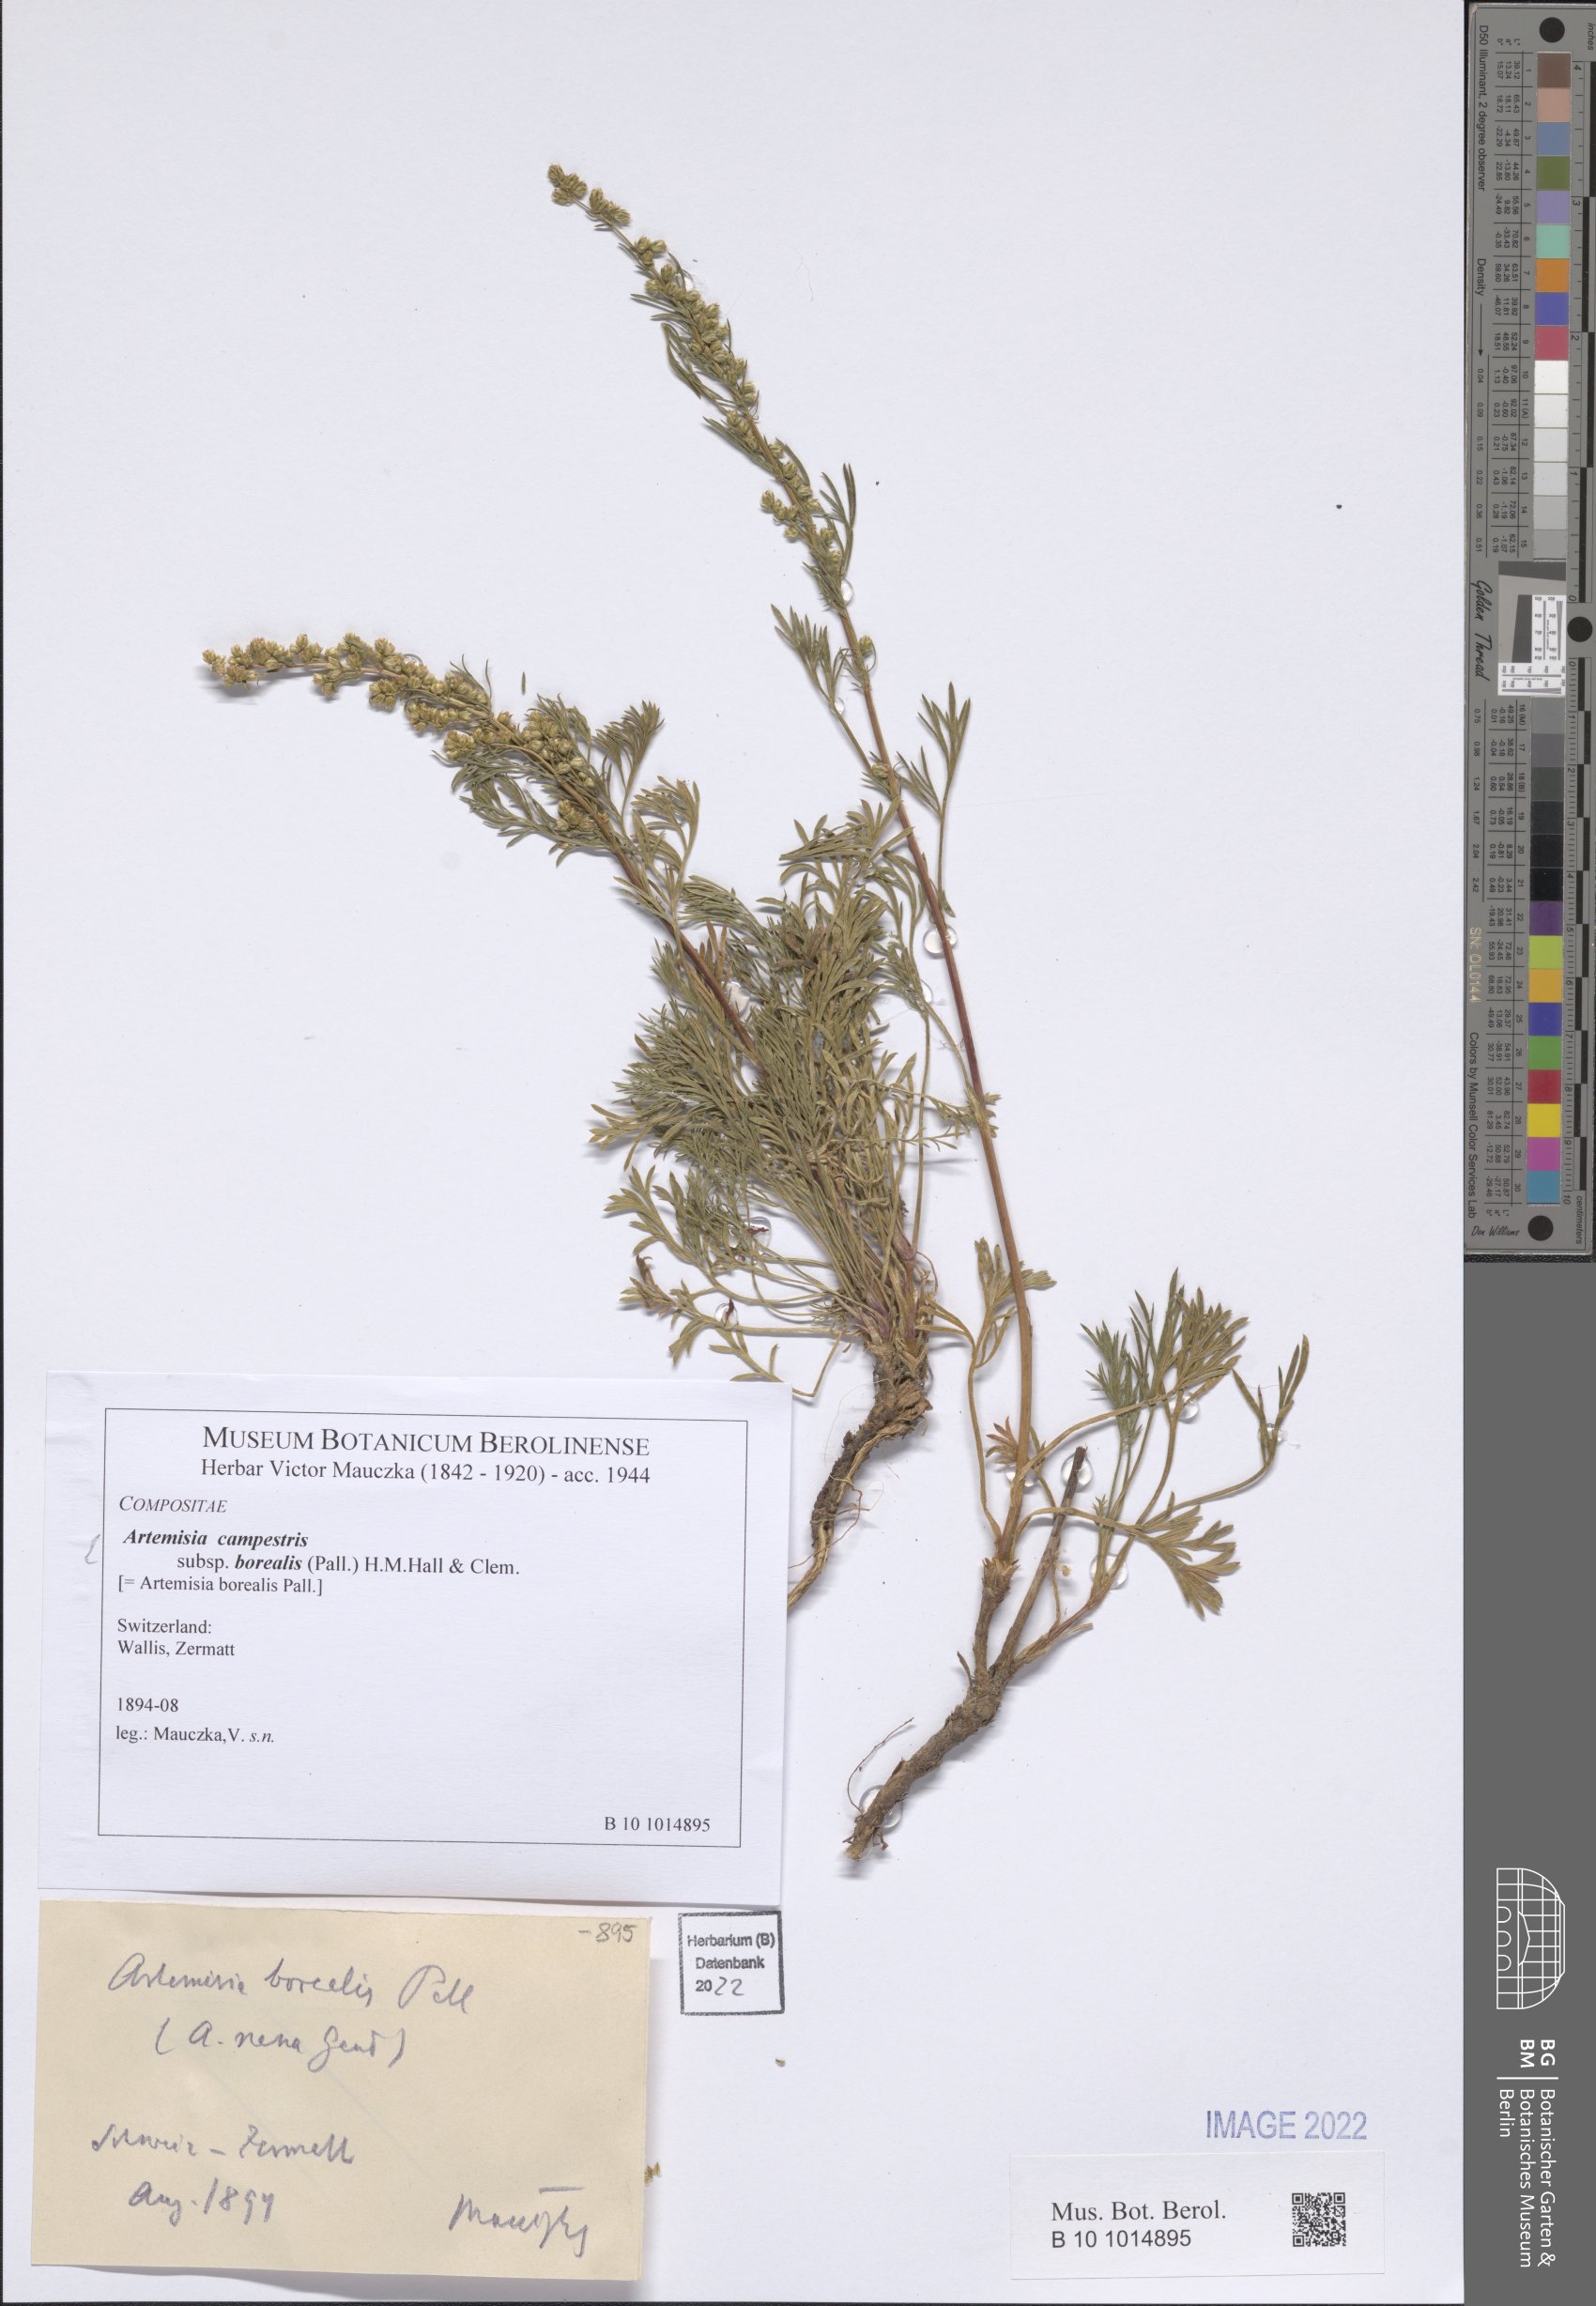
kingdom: Plantae
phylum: Tracheophyta
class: Magnoliopsida
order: Asterales
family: Asteraceae
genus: Artemisia
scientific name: Artemisia borealis
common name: Boreal sage
